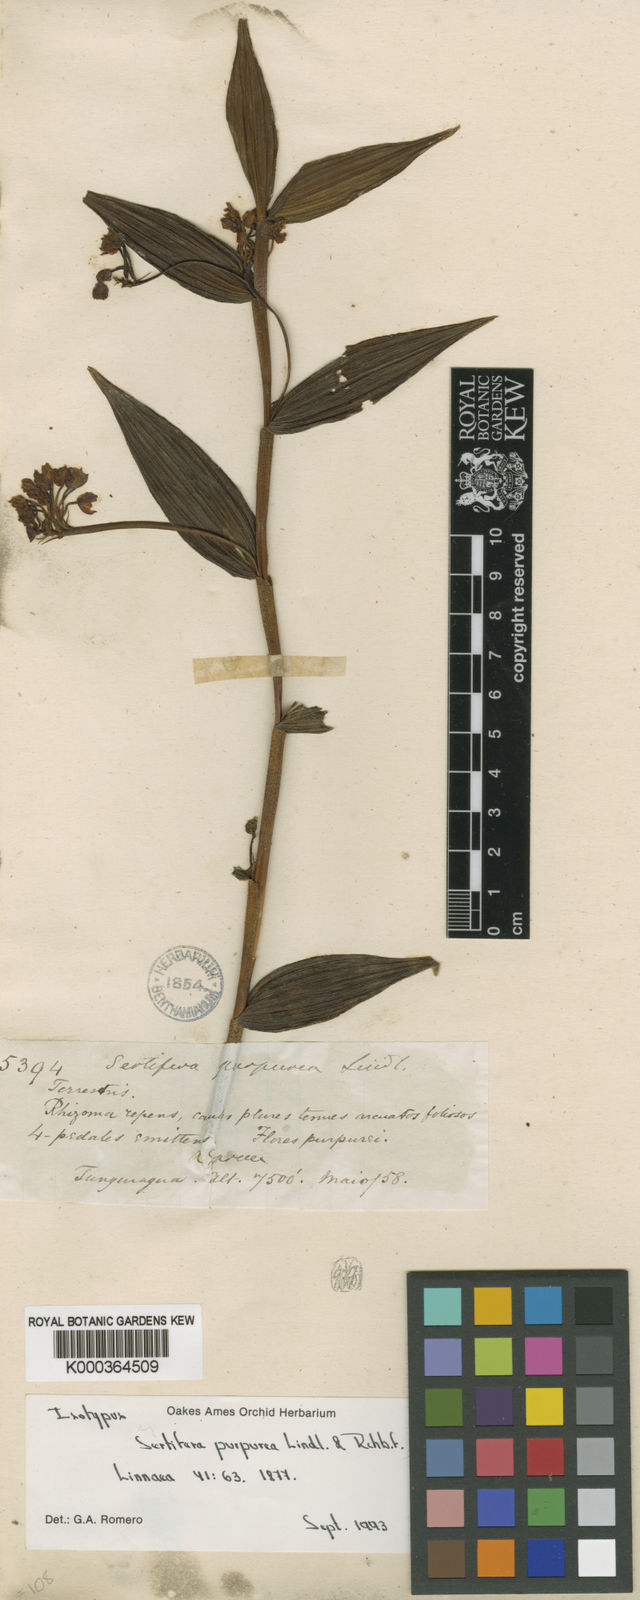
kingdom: Plantae
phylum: Tracheophyta
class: Liliopsida
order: Asparagales
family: Orchidaceae
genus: Elleanthus
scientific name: Elleanthus purpureus
